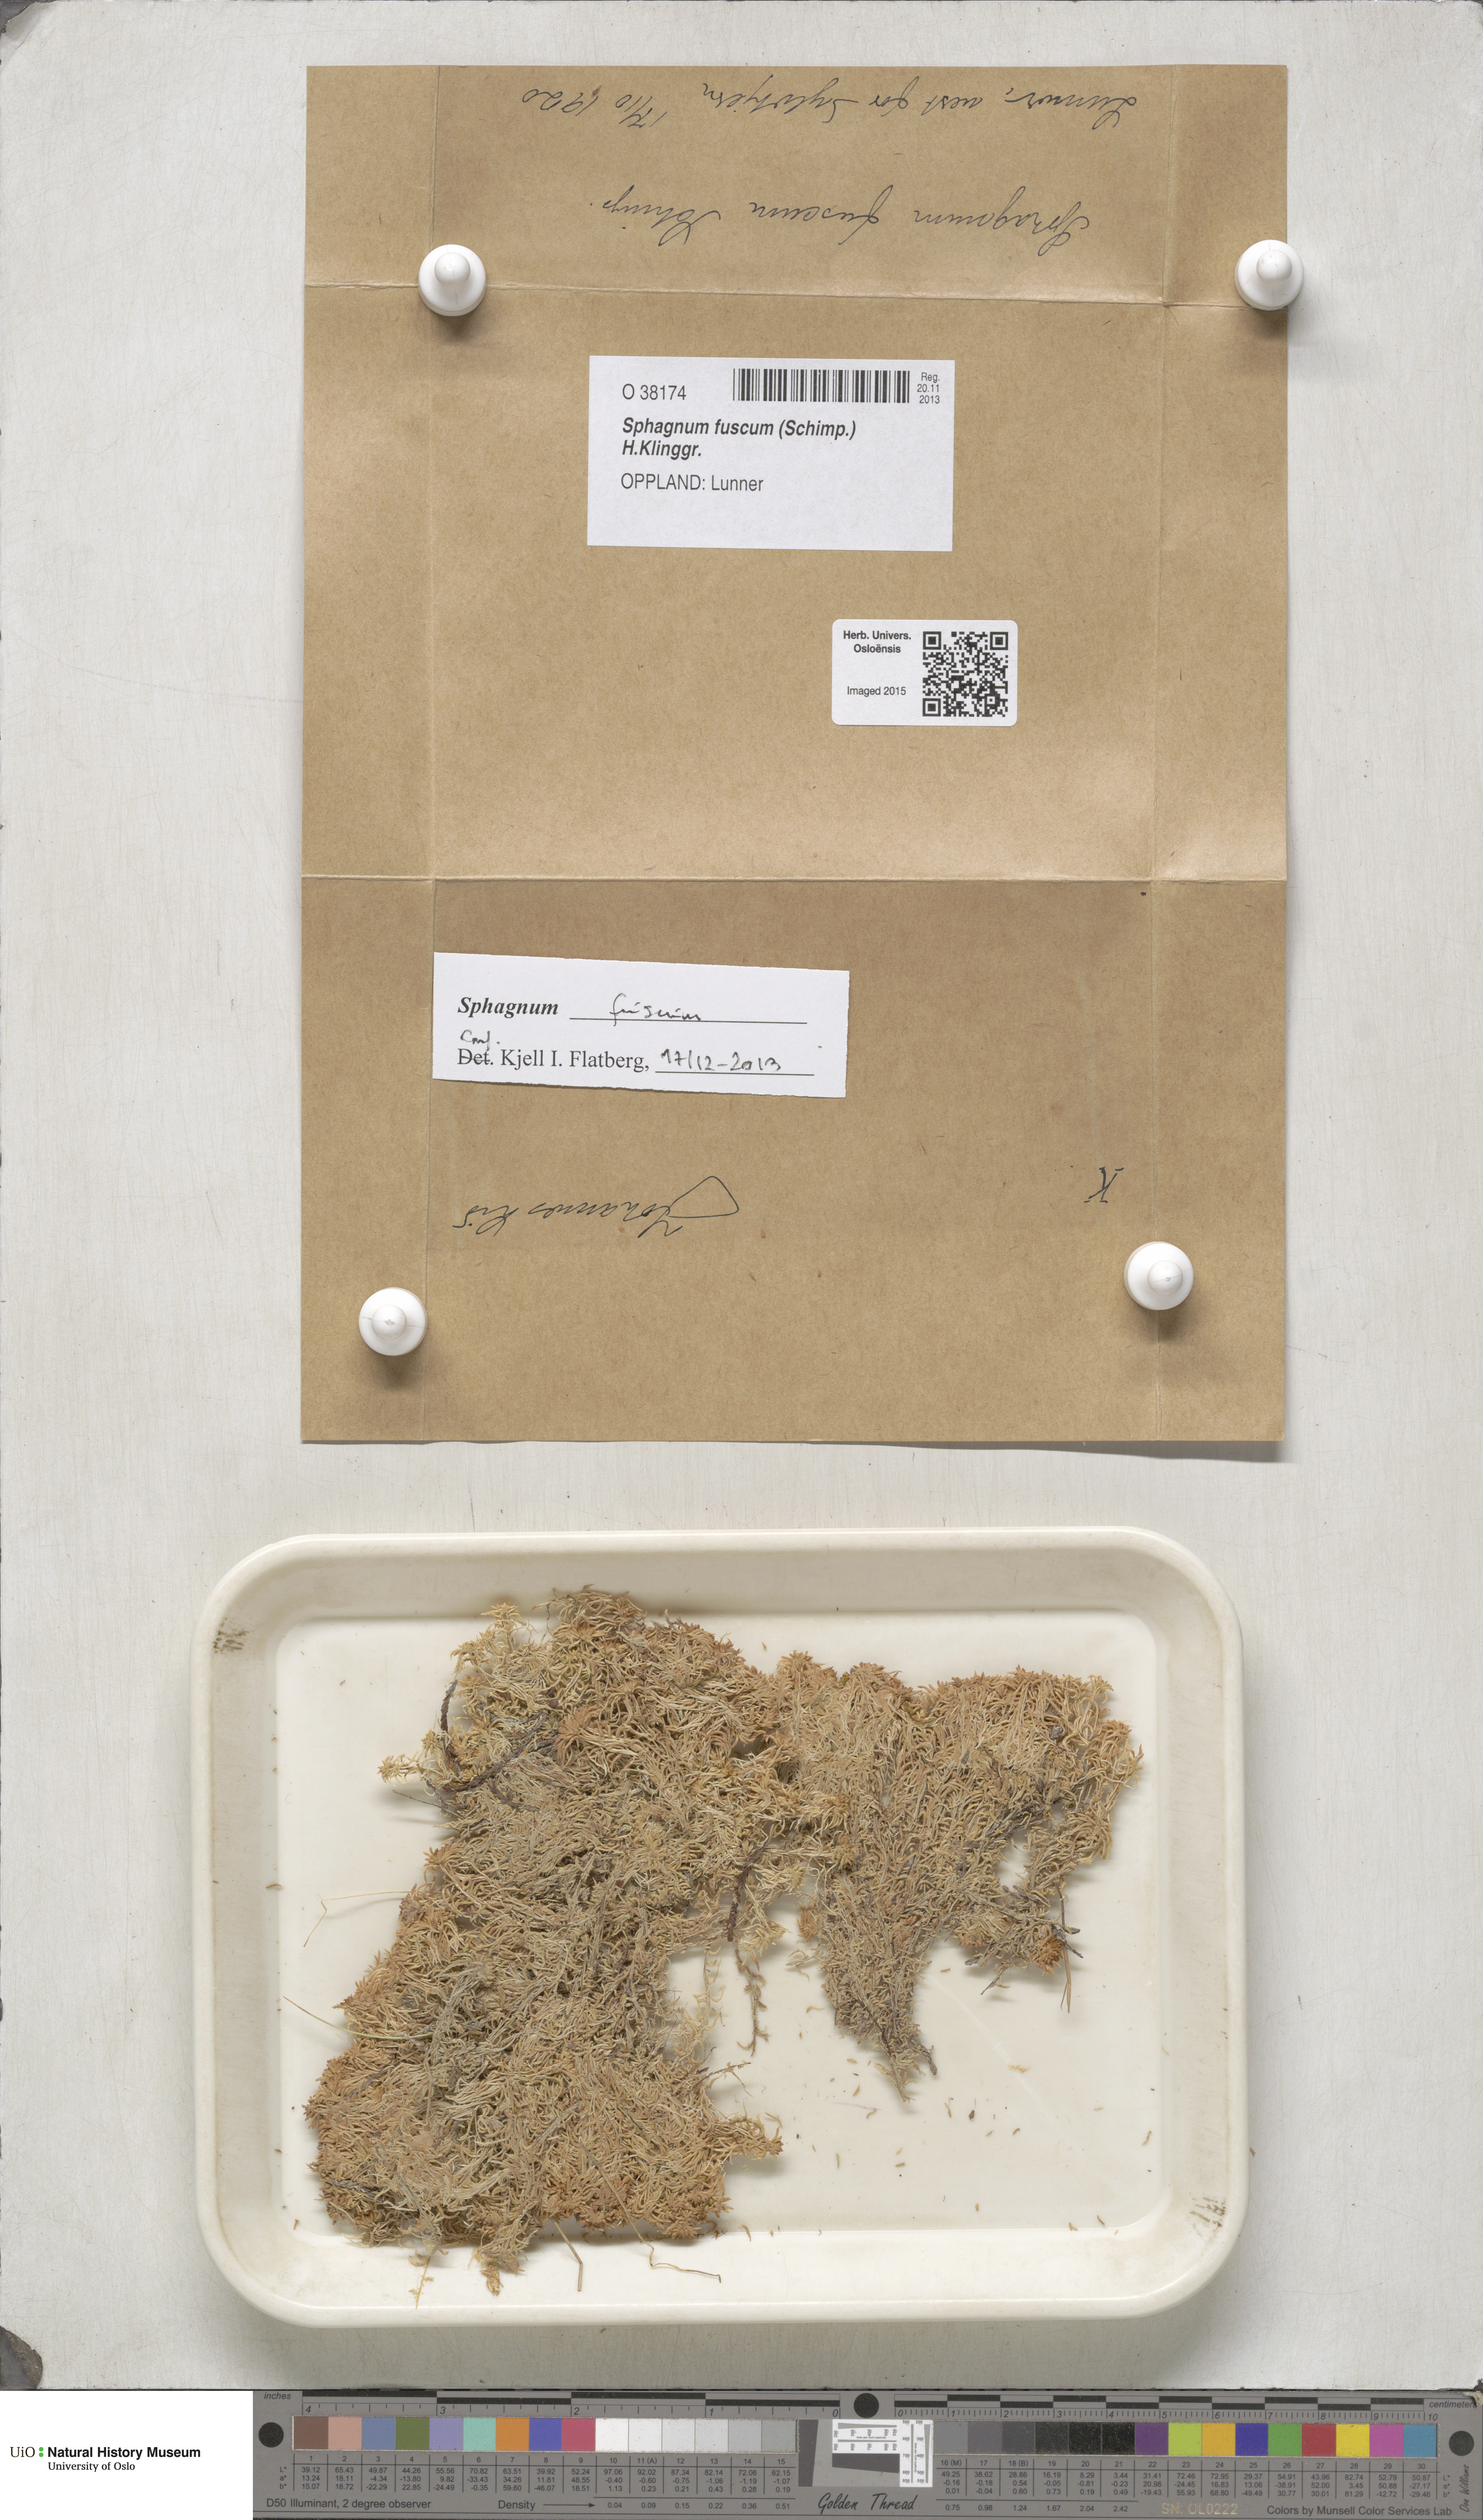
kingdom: Plantae
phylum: Bryophyta
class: Sphagnopsida
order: Sphagnales
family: Sphagnaceae
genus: Sphagnum
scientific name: Sphagnum fuscum
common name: Brown peat moss
